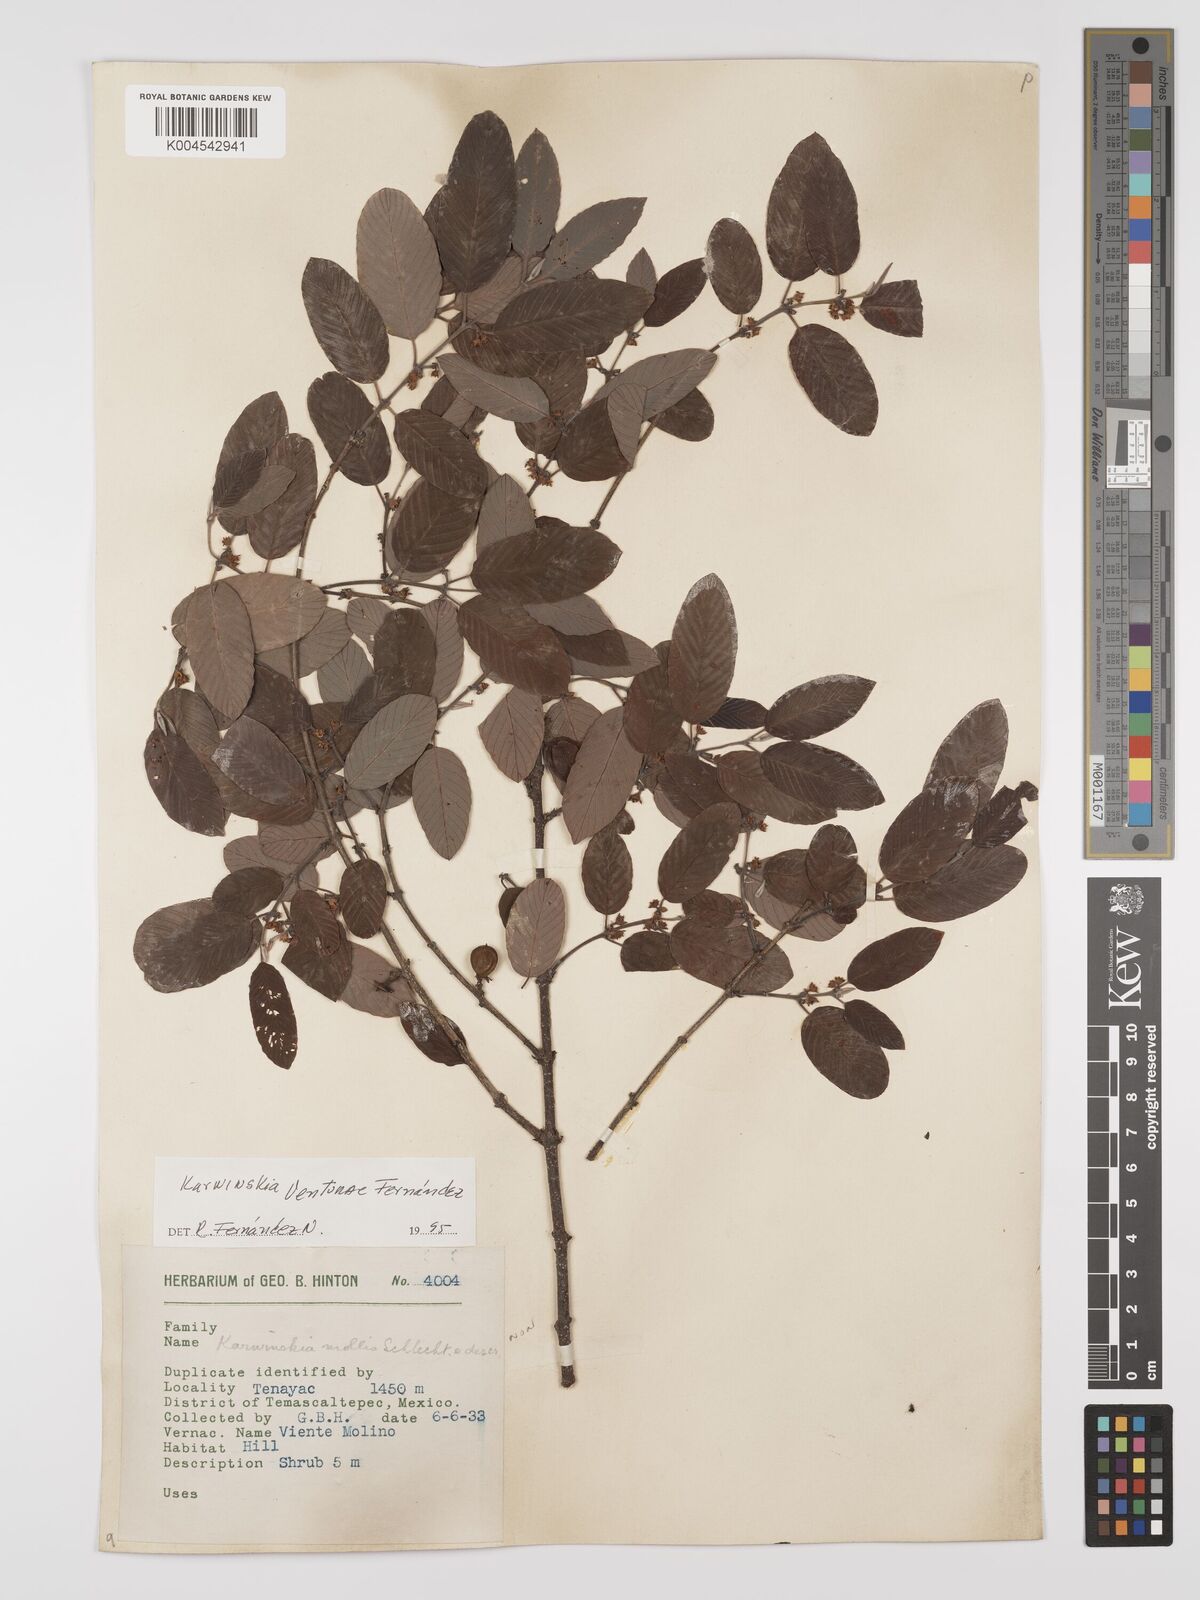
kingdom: Plantae
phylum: Tracheophyta
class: Magnoliopsida
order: Rosales
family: Rhamnaceae
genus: Karwinskia
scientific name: Karwinskia venturae
